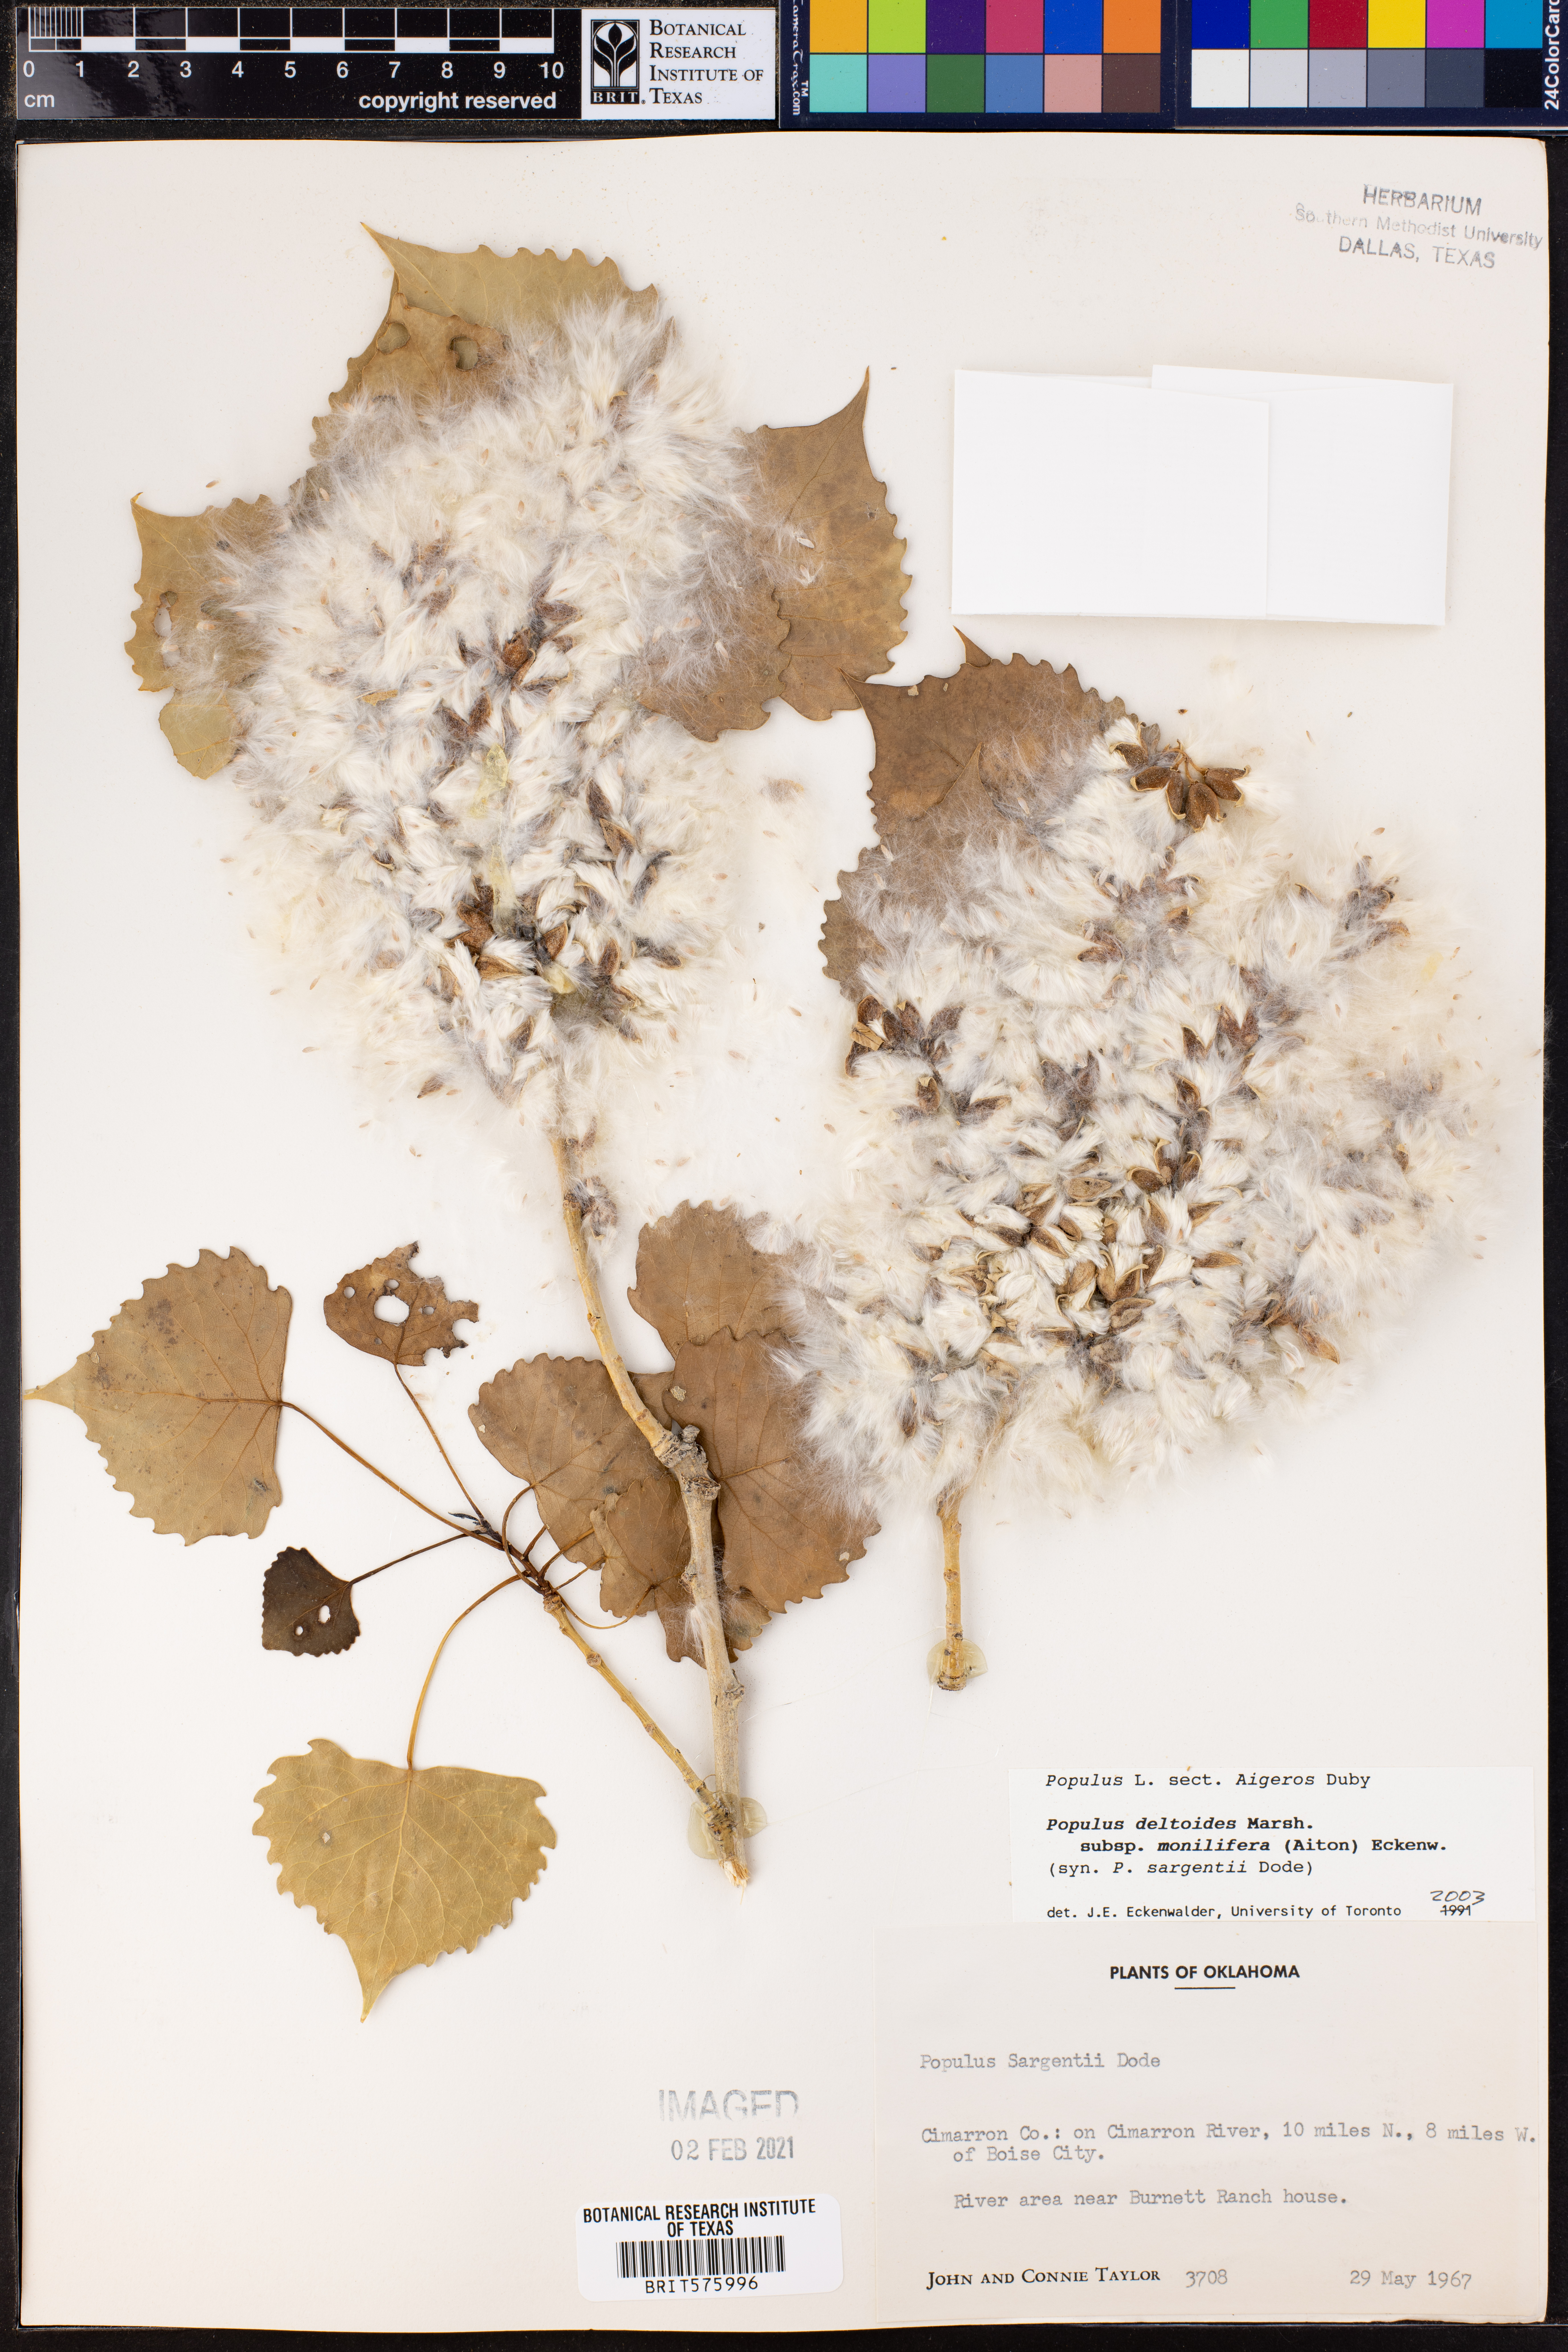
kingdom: Plantae
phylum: Tracheophyta
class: Magnoliopsida
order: Malpighiales
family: Salicaceae
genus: Populus
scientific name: Populus deltoides
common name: Eastern cottonwood
